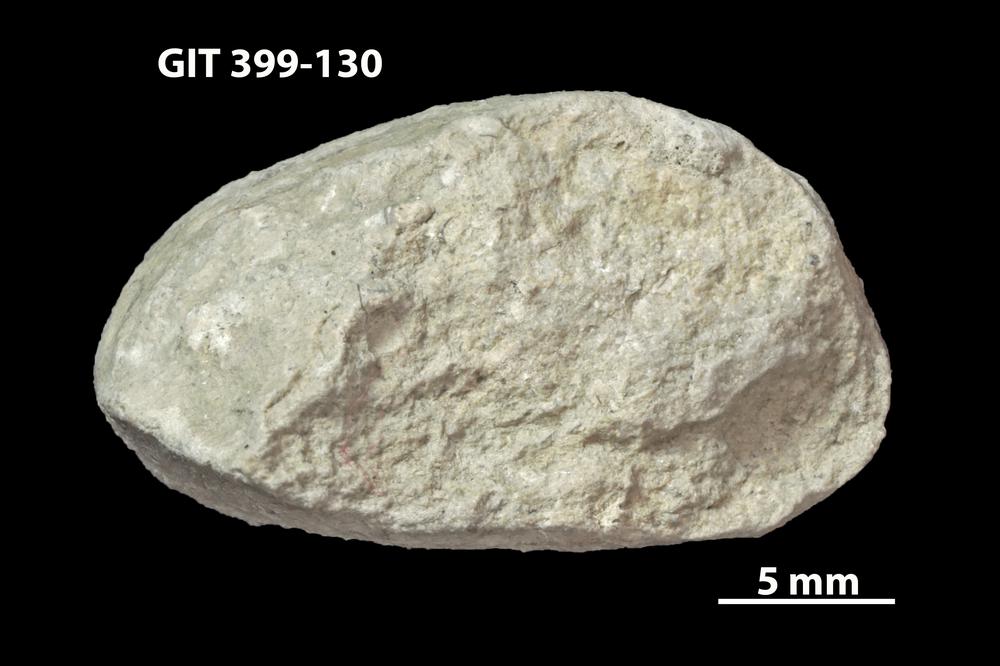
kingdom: Animalia
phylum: Annelida
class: Polychaeta
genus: Hyolithes
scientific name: Hyolithes
